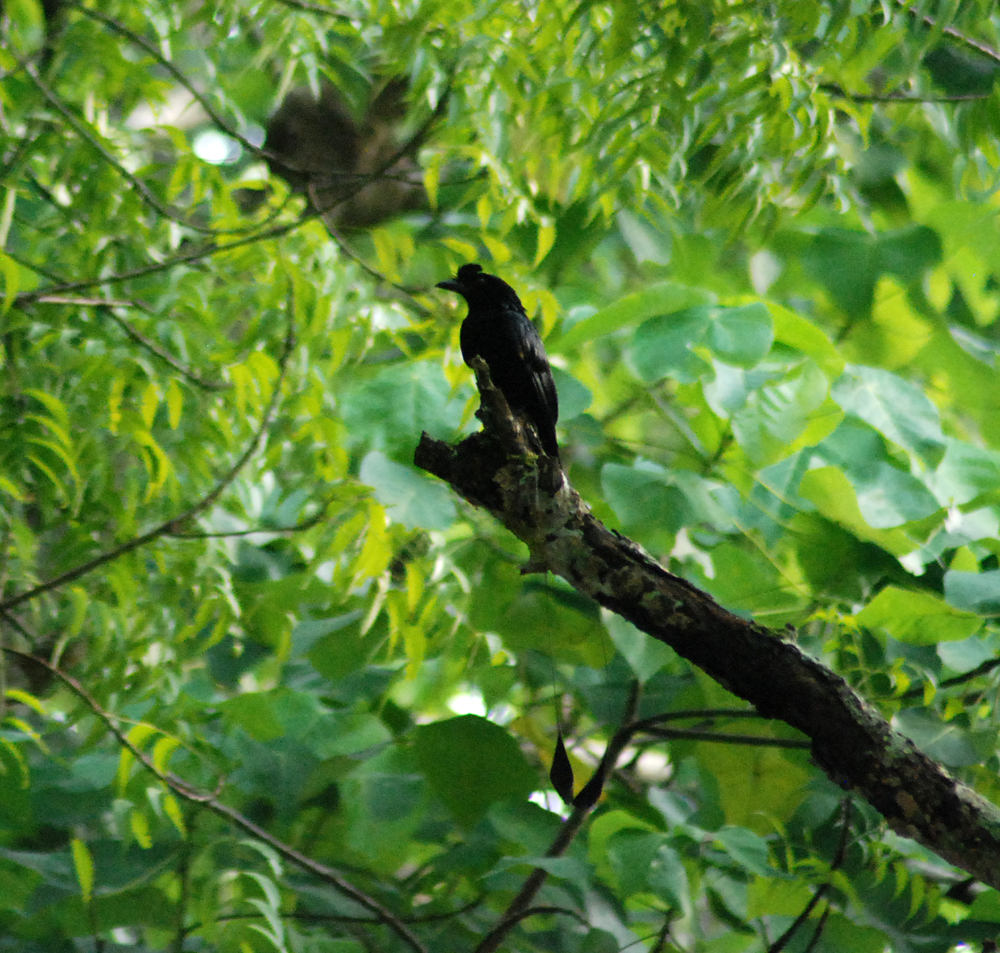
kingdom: Animalia
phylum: Chordata
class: Aves
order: Passeriformes
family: Dicruridae
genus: Dicrurus
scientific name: Dicrurus paradiseus
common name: Greater racket-tailed drongo
